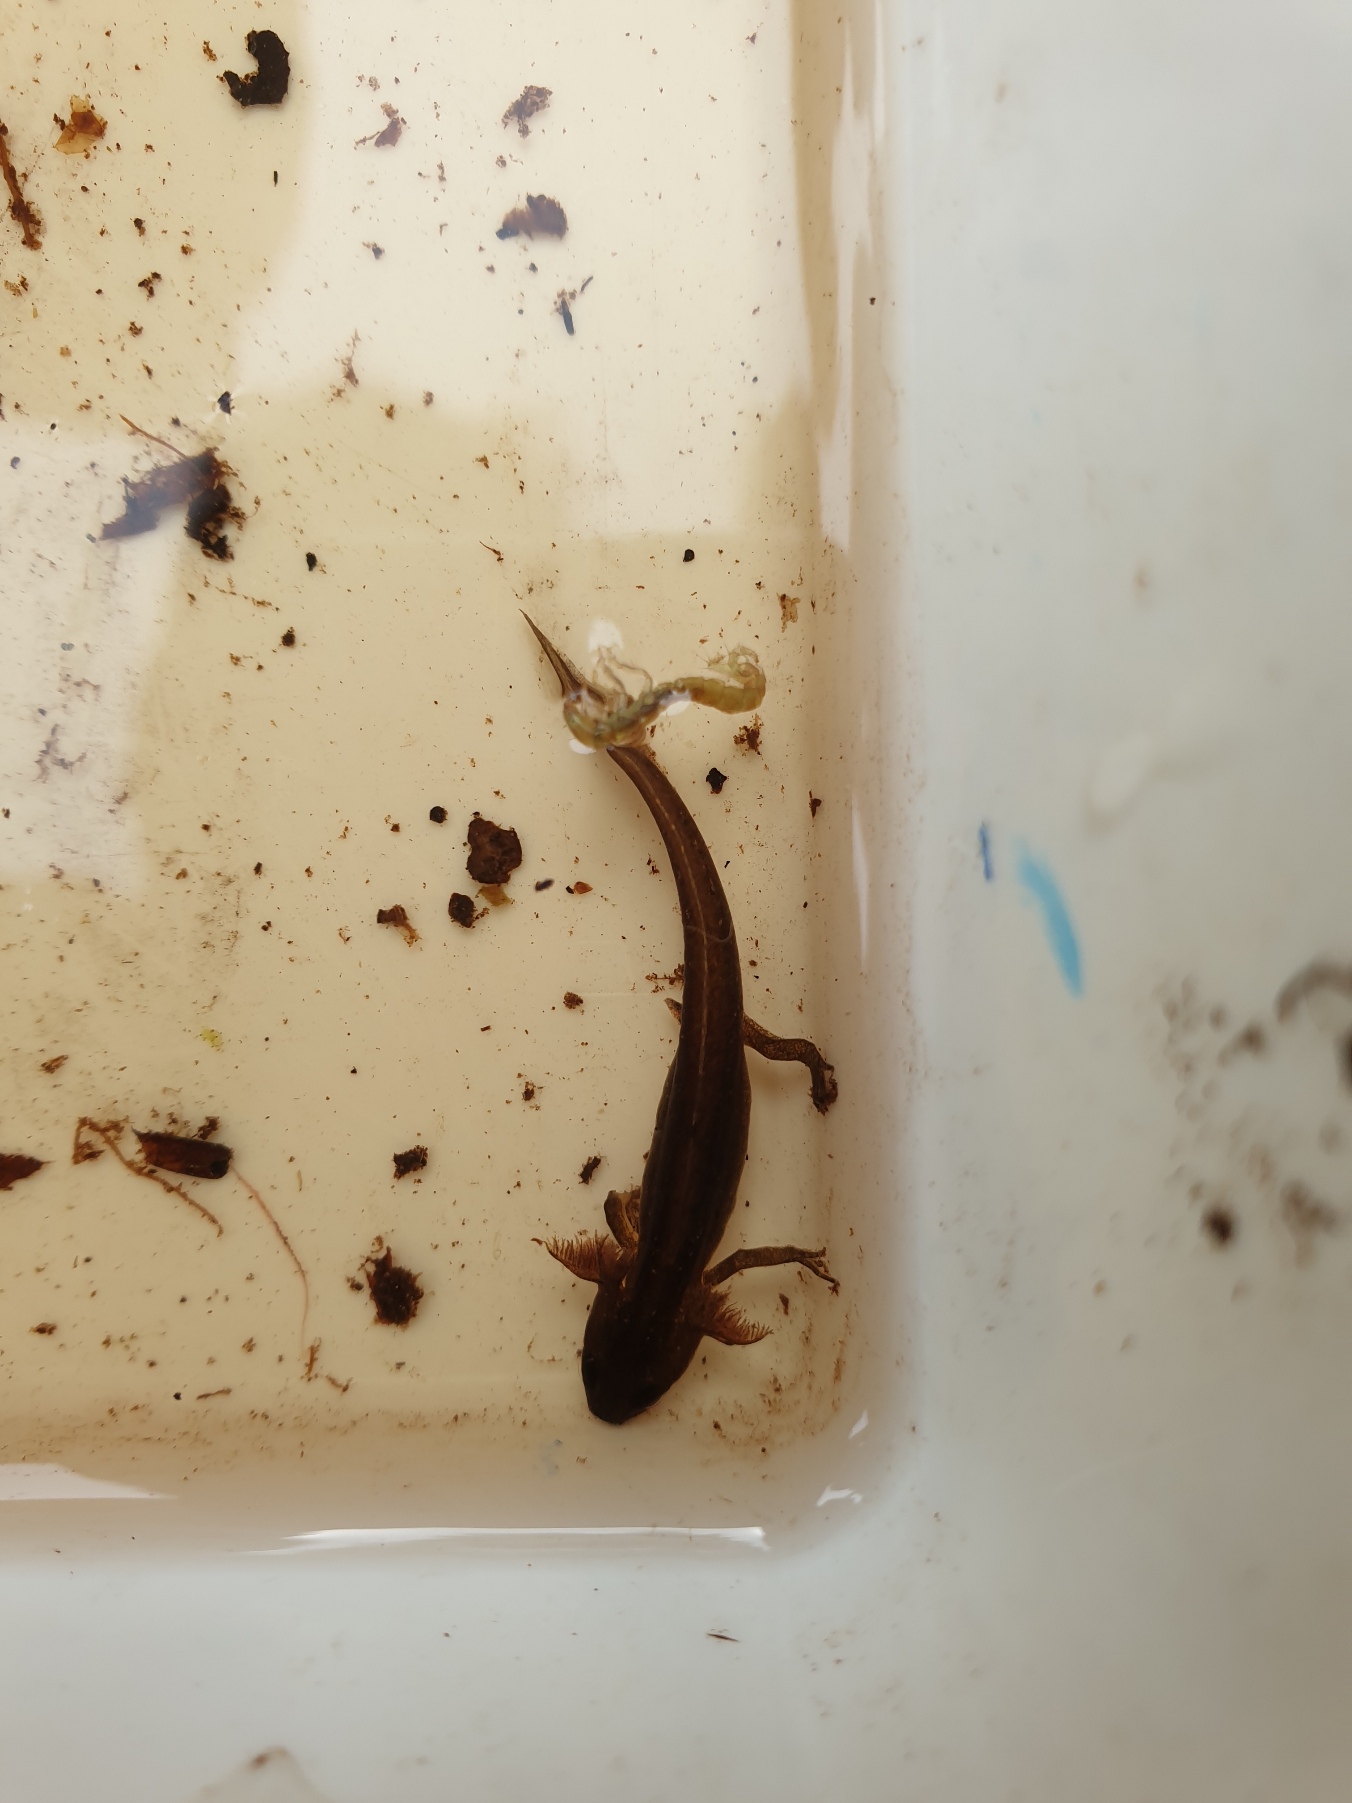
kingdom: Animalia
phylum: Chordata
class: Amphibia
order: Caudata
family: Salamandridae
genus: Lissotriton
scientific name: Lissotriton vulgaris
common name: Lille vandsalamander
